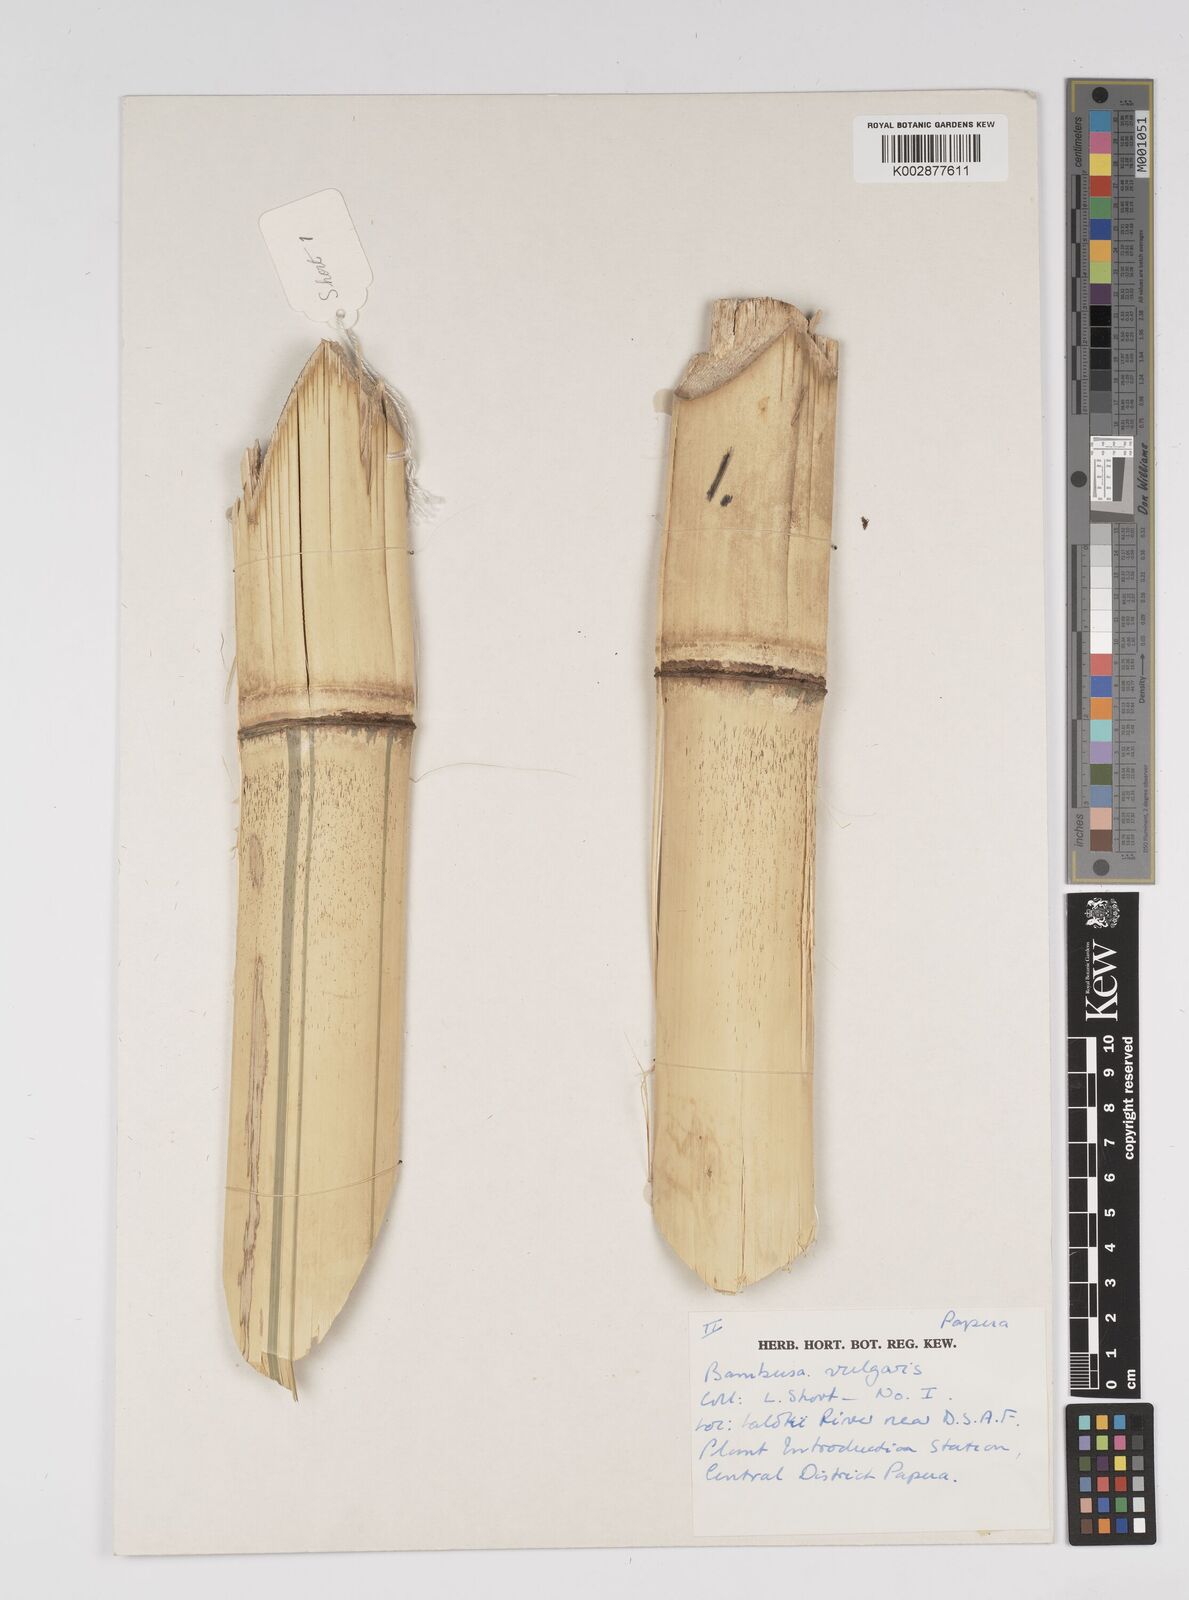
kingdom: Plantae
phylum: Tracheophyta
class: Liliopsida
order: Poales
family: Poaceae
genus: Bambusa
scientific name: Bambusa balcooa
